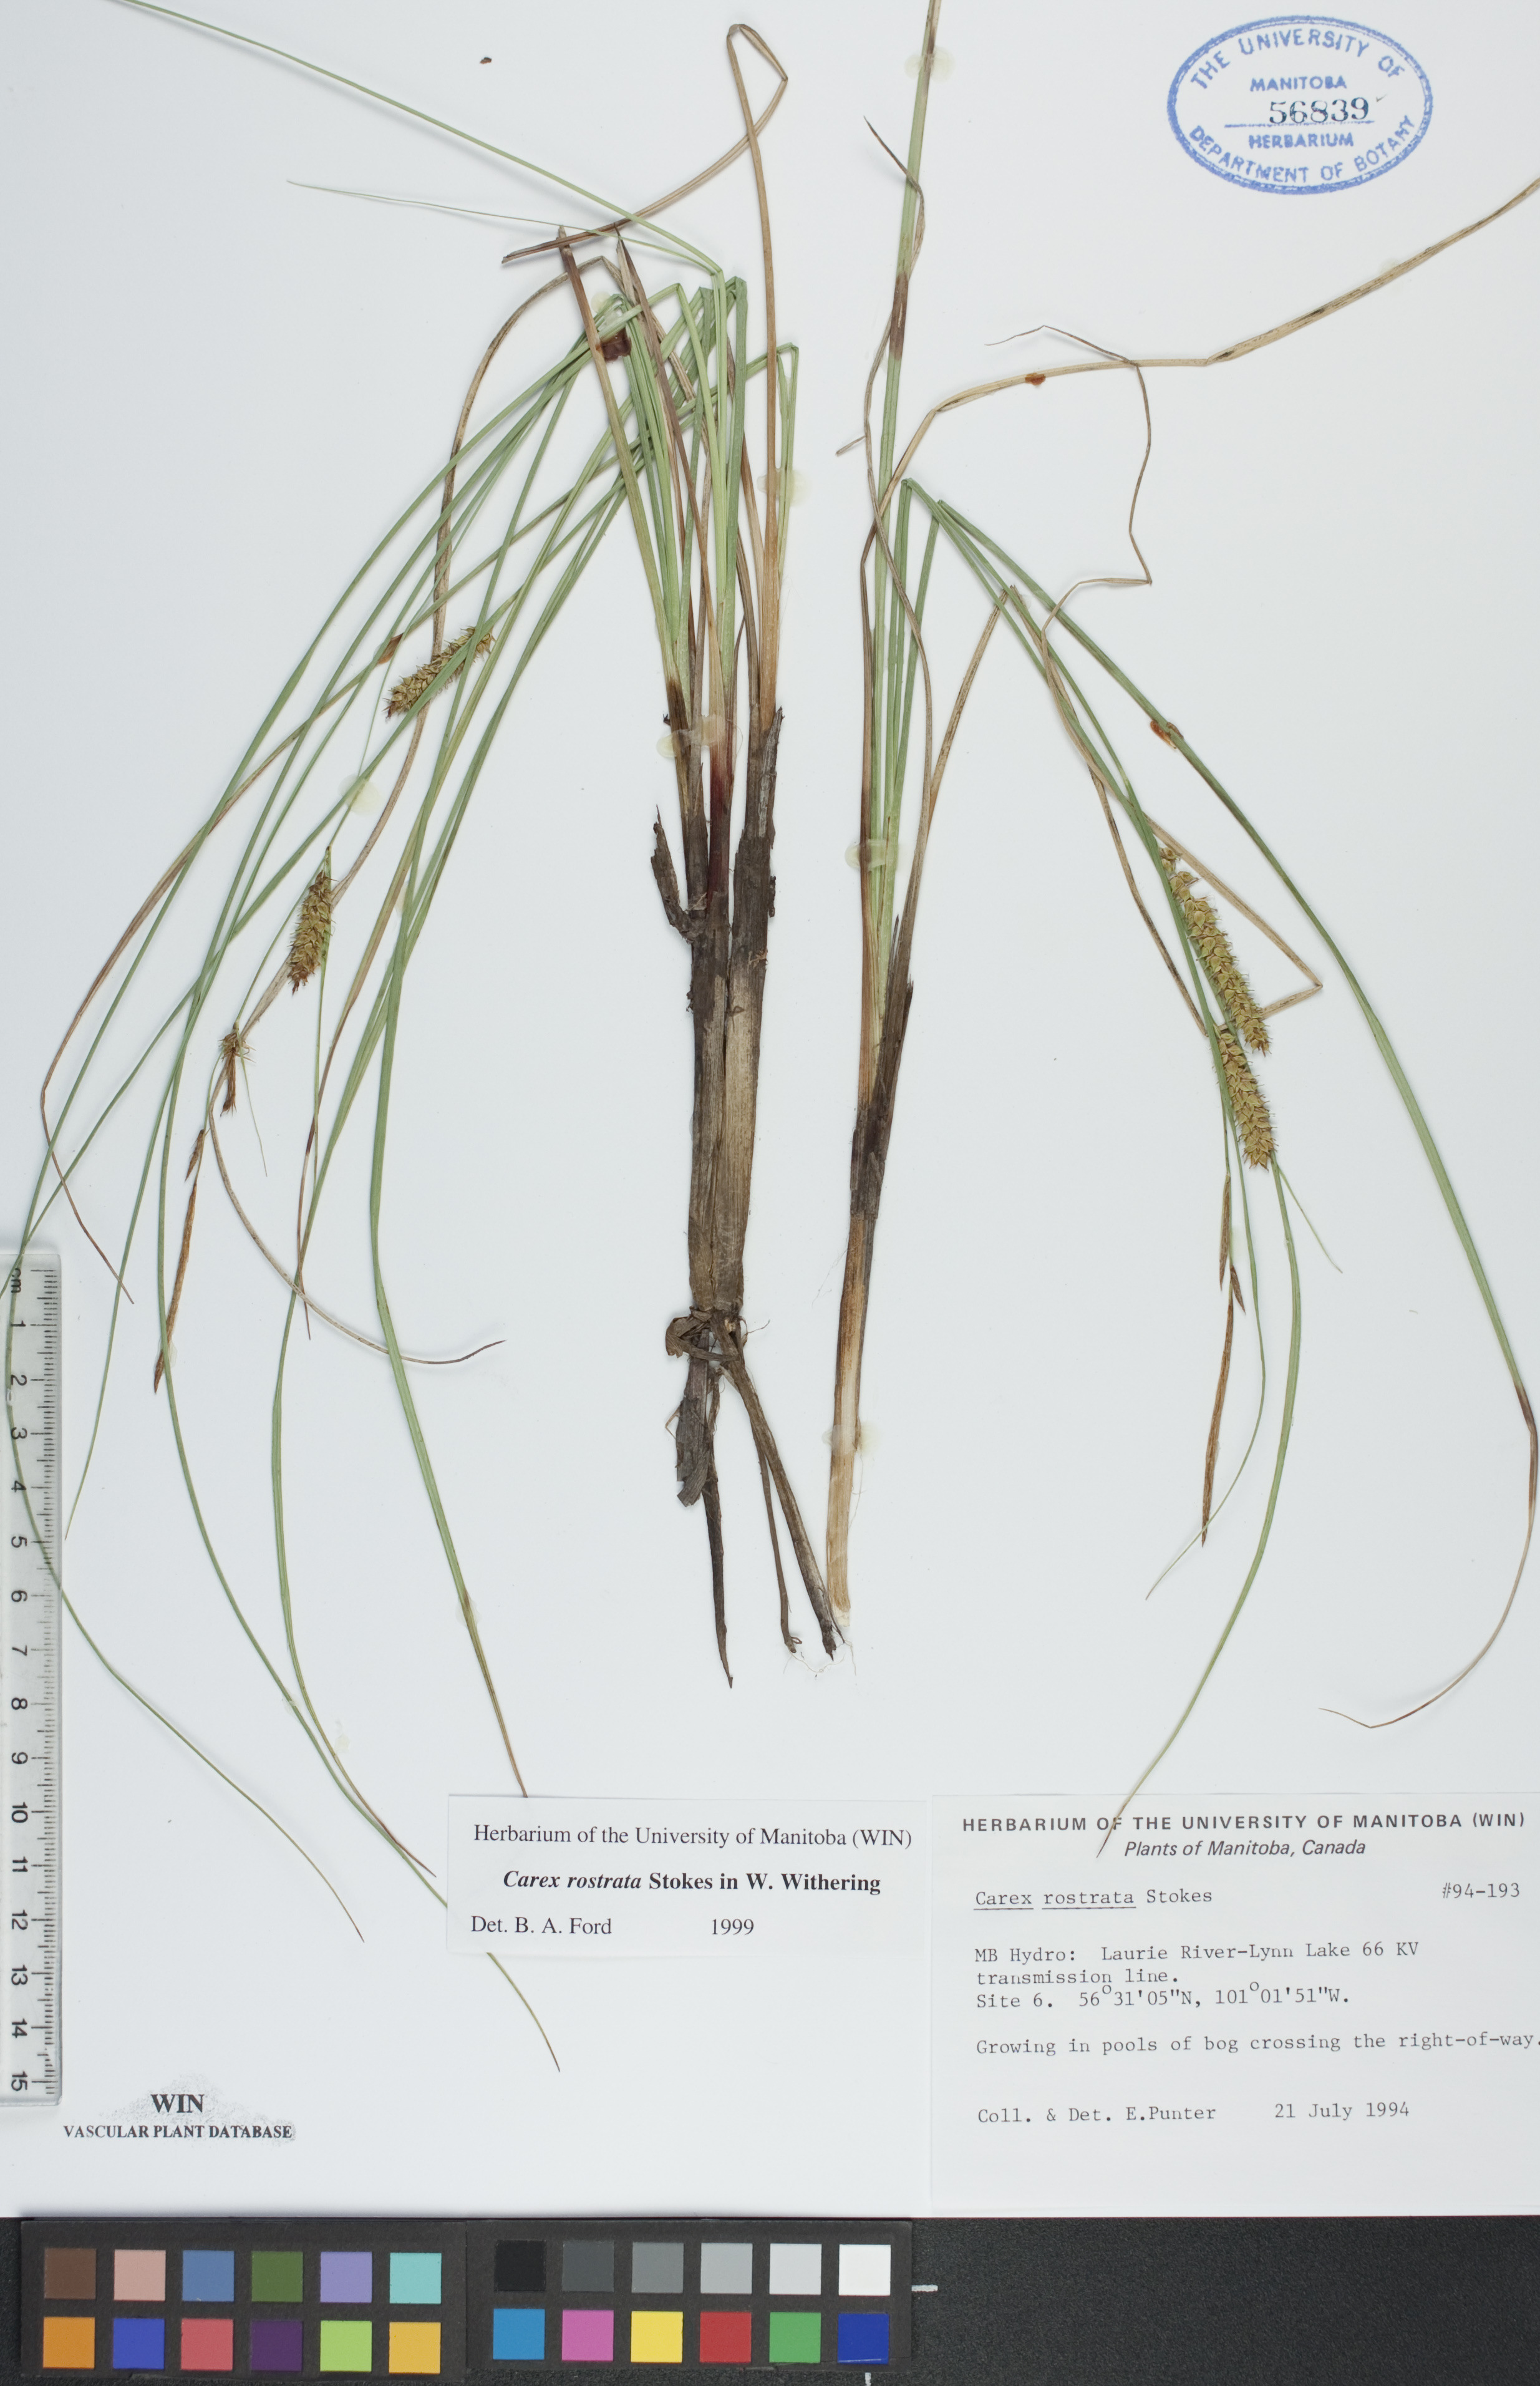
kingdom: Plantae
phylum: Tracheophyta
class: Liliopsida
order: Poales
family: Cyperaceae
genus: Carex
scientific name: Carex rostrata
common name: Bottle sedge
